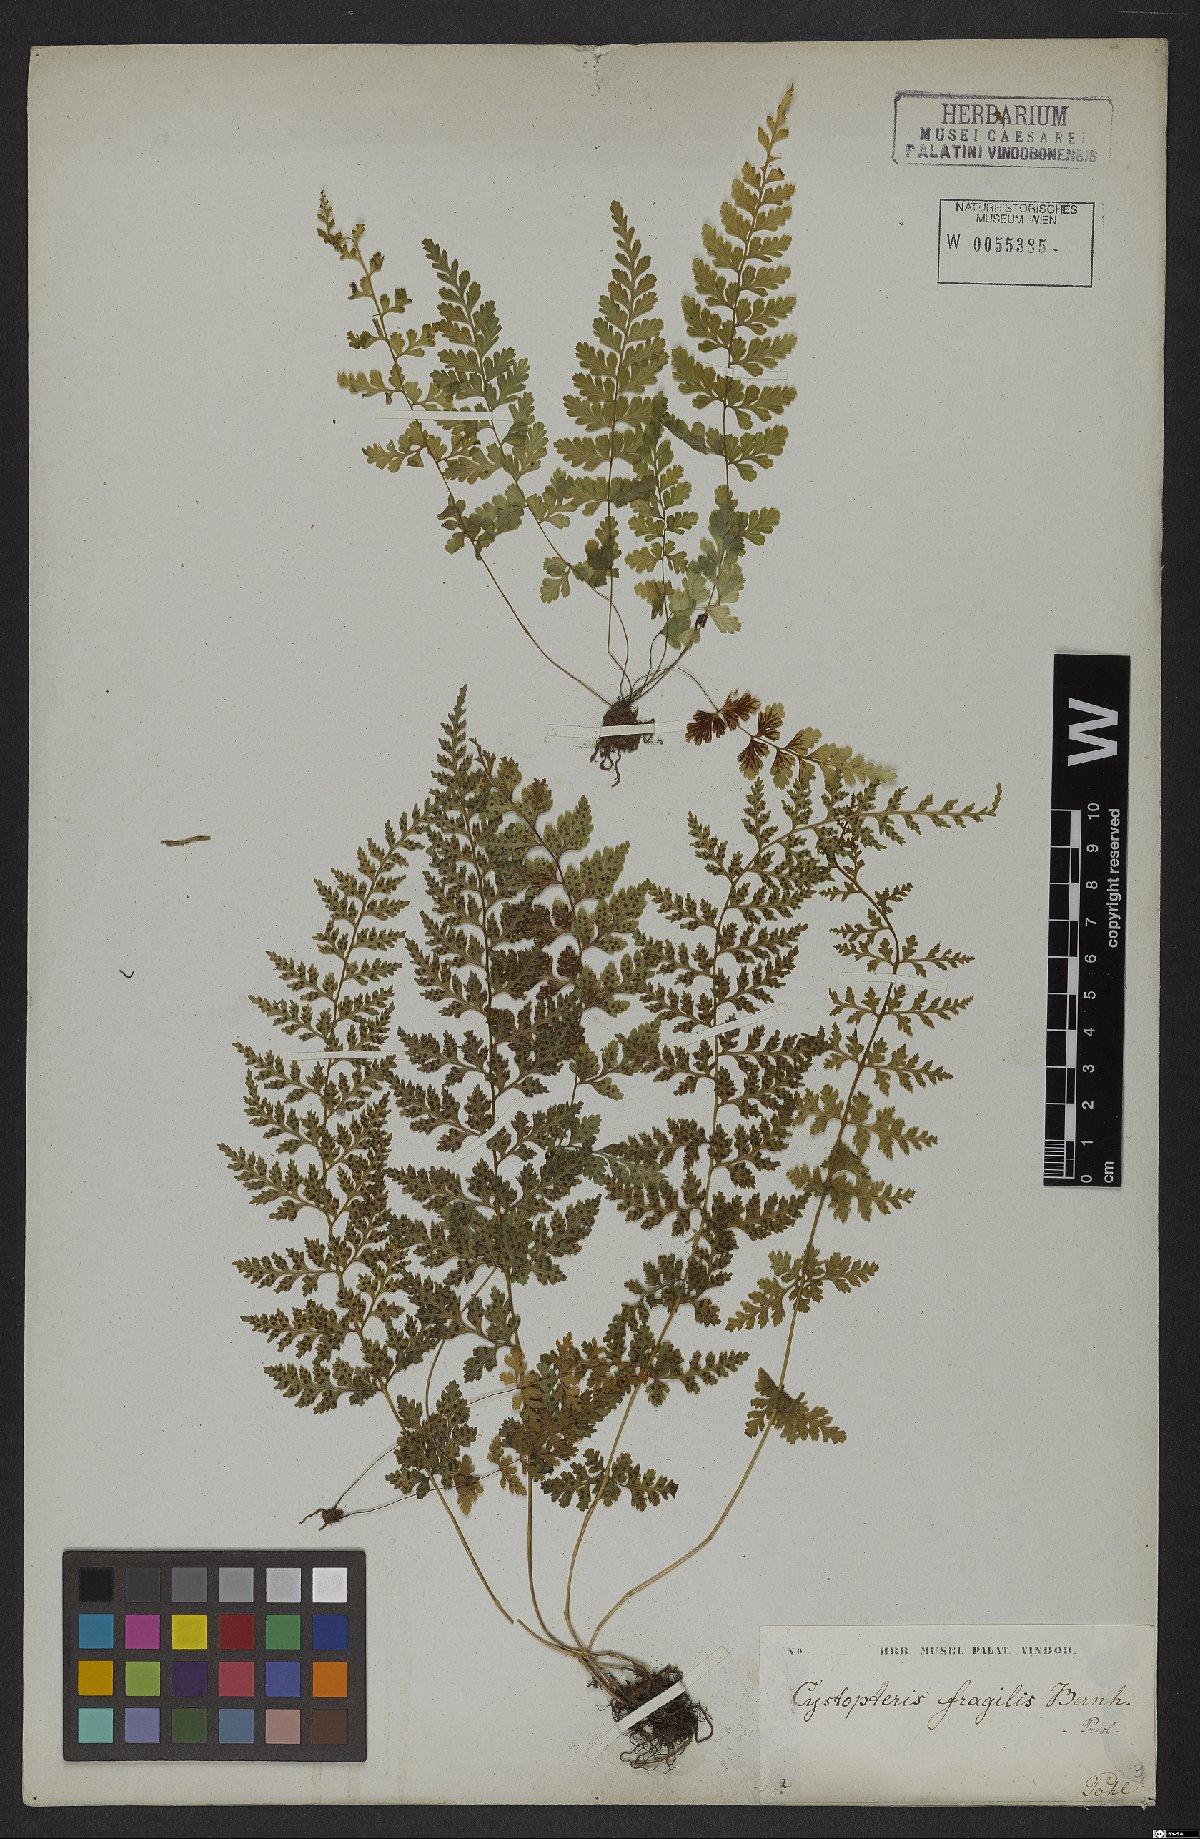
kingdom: Plantae
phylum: Tracheophyta
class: Polypodiopsida
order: Polypodiales
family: Cystopteridaceae
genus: Cystopteris
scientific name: Cystopteris fragilis
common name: Brittle bladder fern
